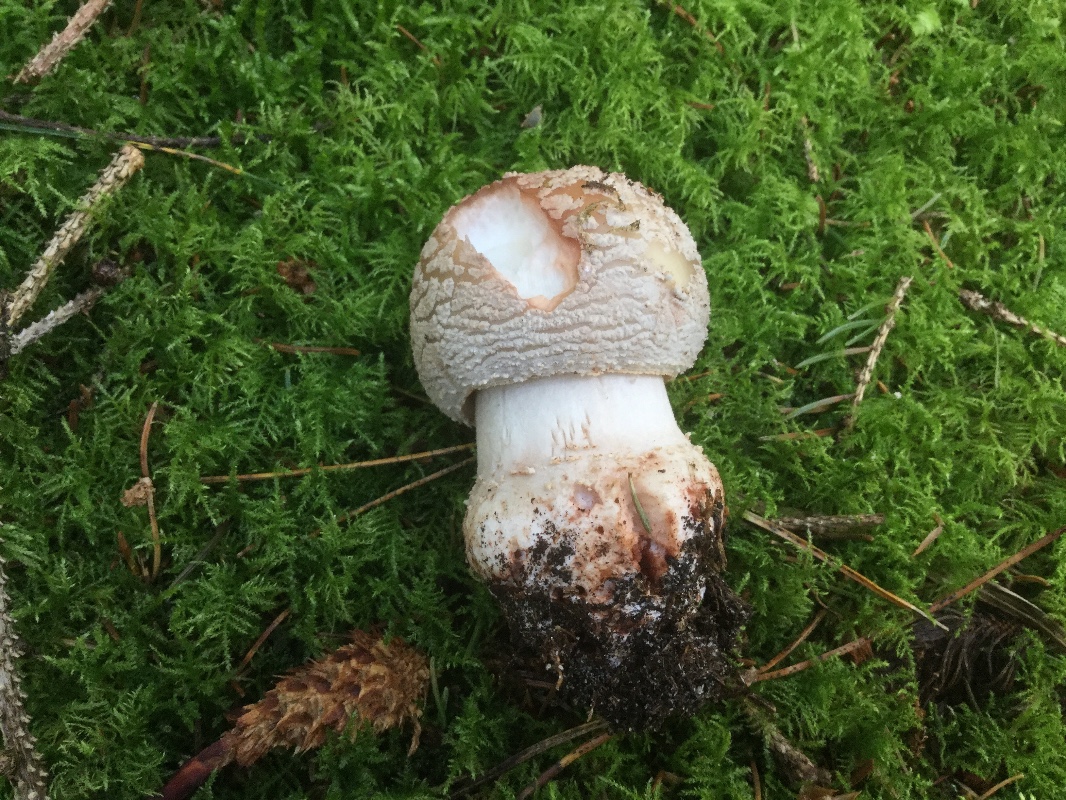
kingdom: Fungi
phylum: Basidiomycota
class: Agaricomycetes
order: Agaricales
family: Amanitaceae
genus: Amanita
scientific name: Amanita rubescens
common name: rødmende fluesvamp
